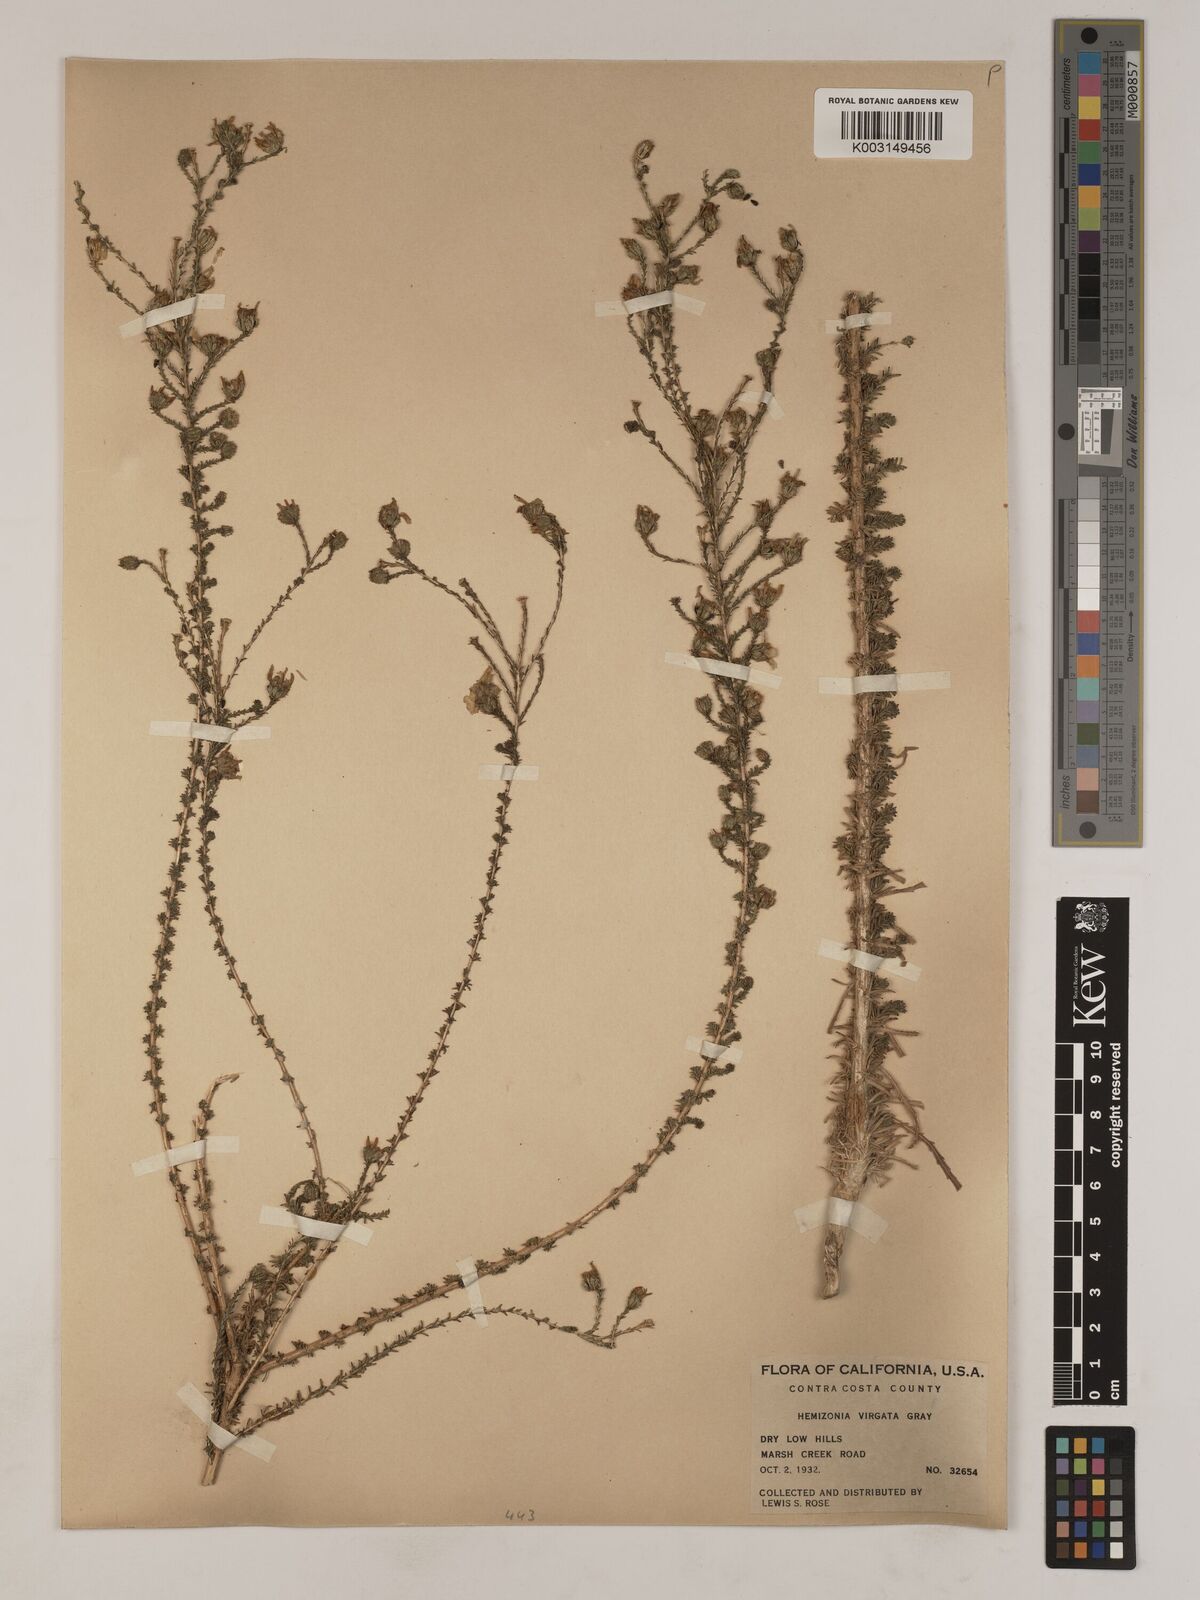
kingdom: Plantae
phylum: Tracheophyta
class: Magnoliopsida
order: Asterales
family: Asteraceae
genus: Holocarpha
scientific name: Holocarpha virgata
